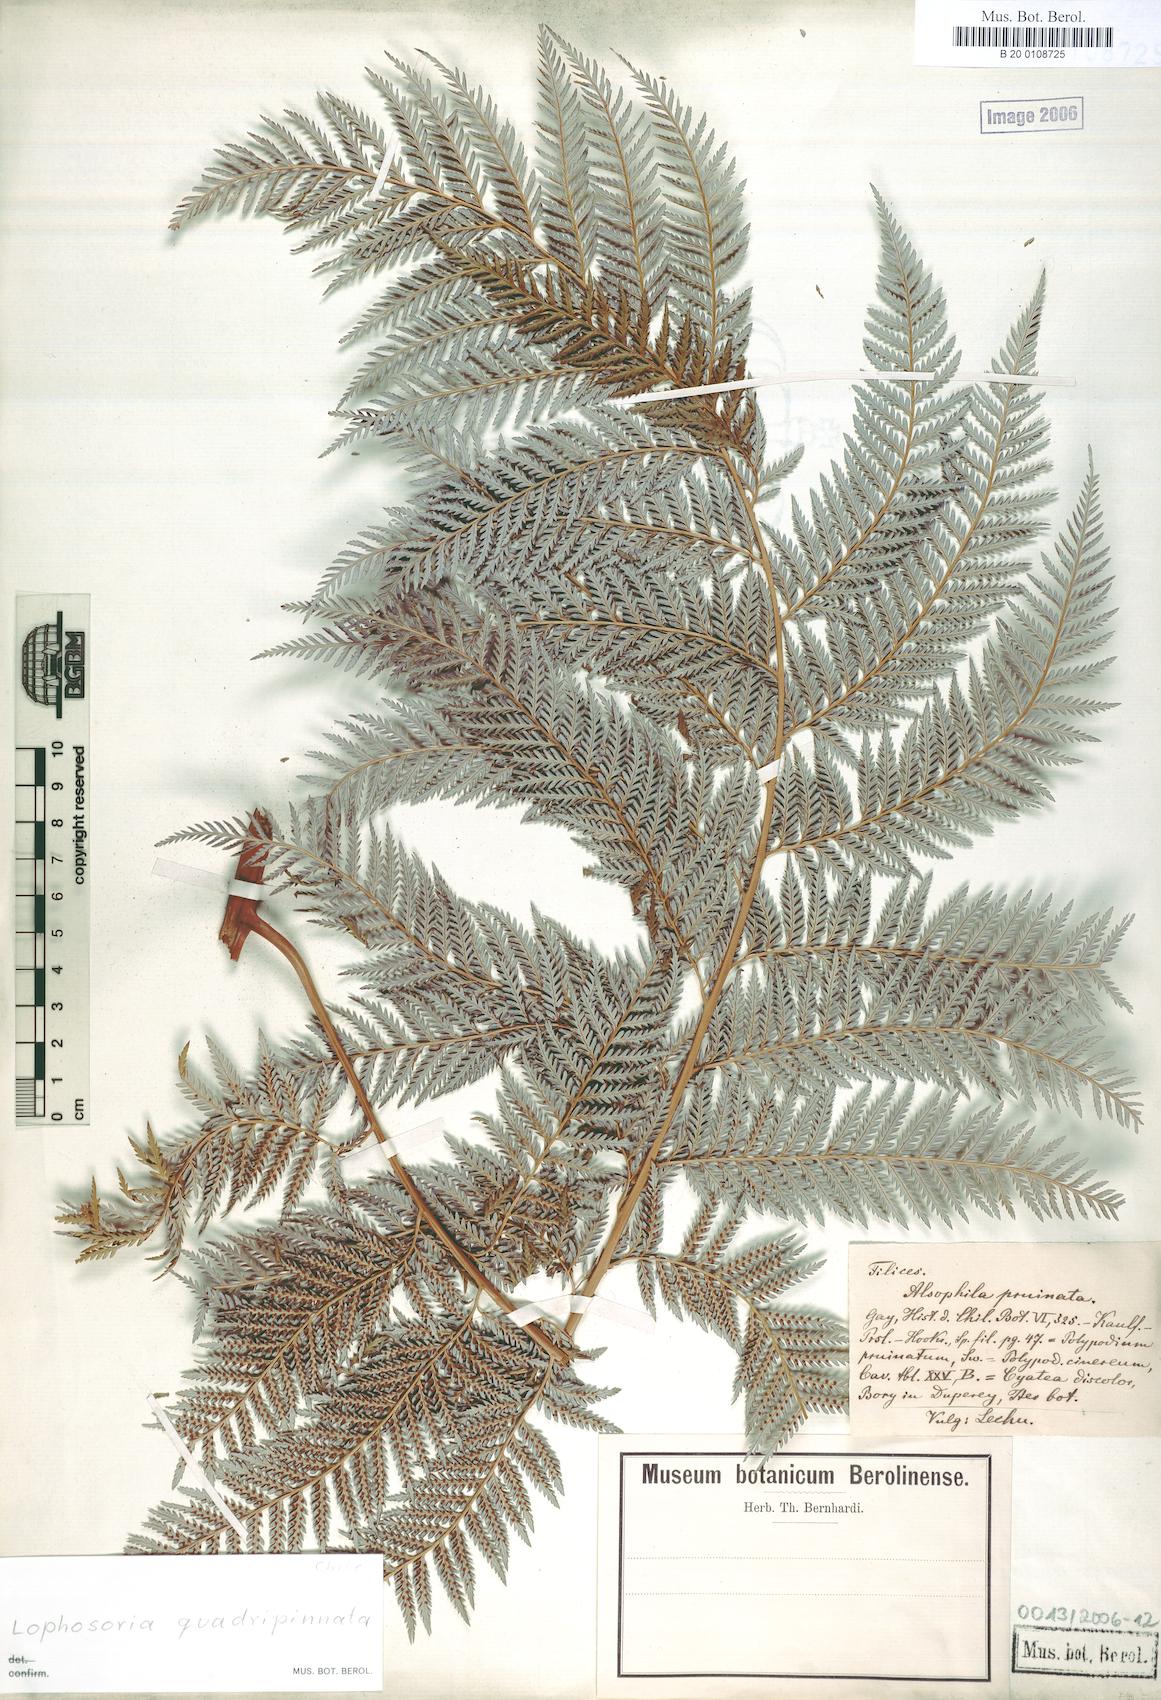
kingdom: Plantae
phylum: Tracheophyta
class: Polypodiopsida
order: Cyatheales
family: Dicksoniaceae
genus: Lophosoria
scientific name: Lophosoria quadripinnata
